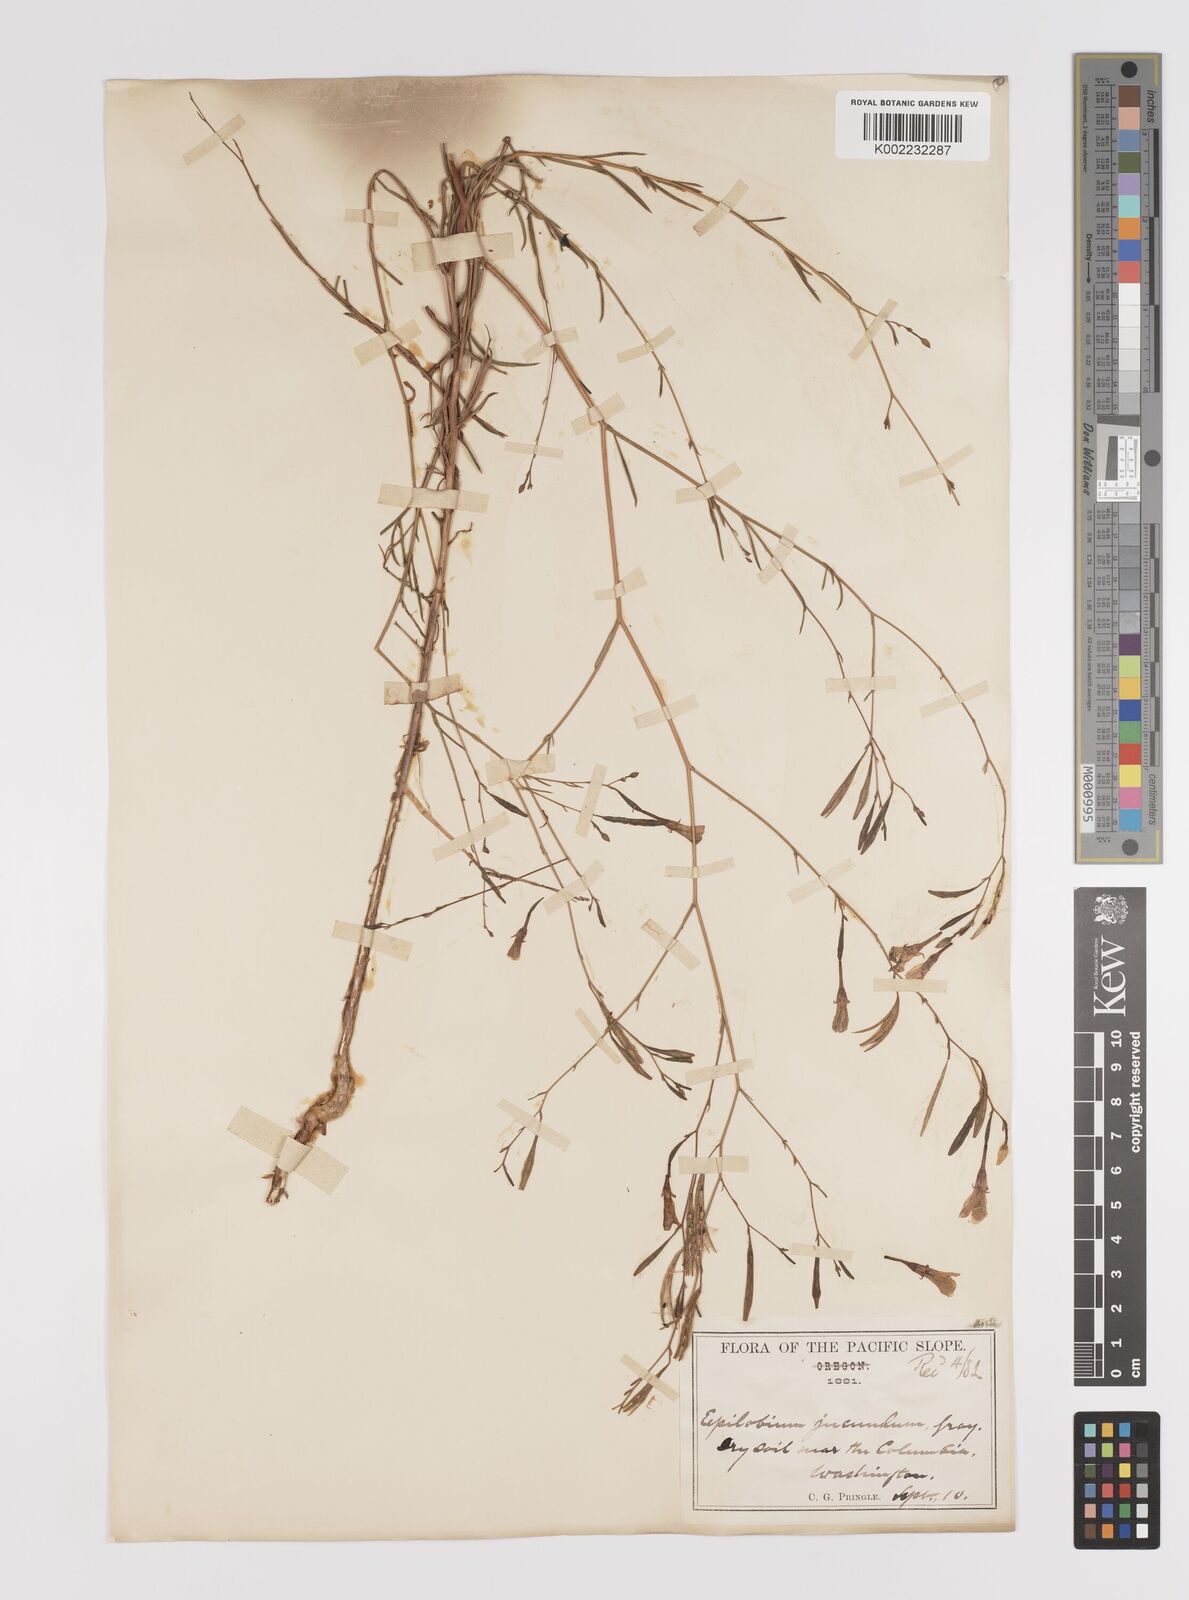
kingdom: Plantae
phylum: Tracheophyta
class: Magnoliopsida
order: Myrtales
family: Onagraceae
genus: Epilobium
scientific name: Epilobium
